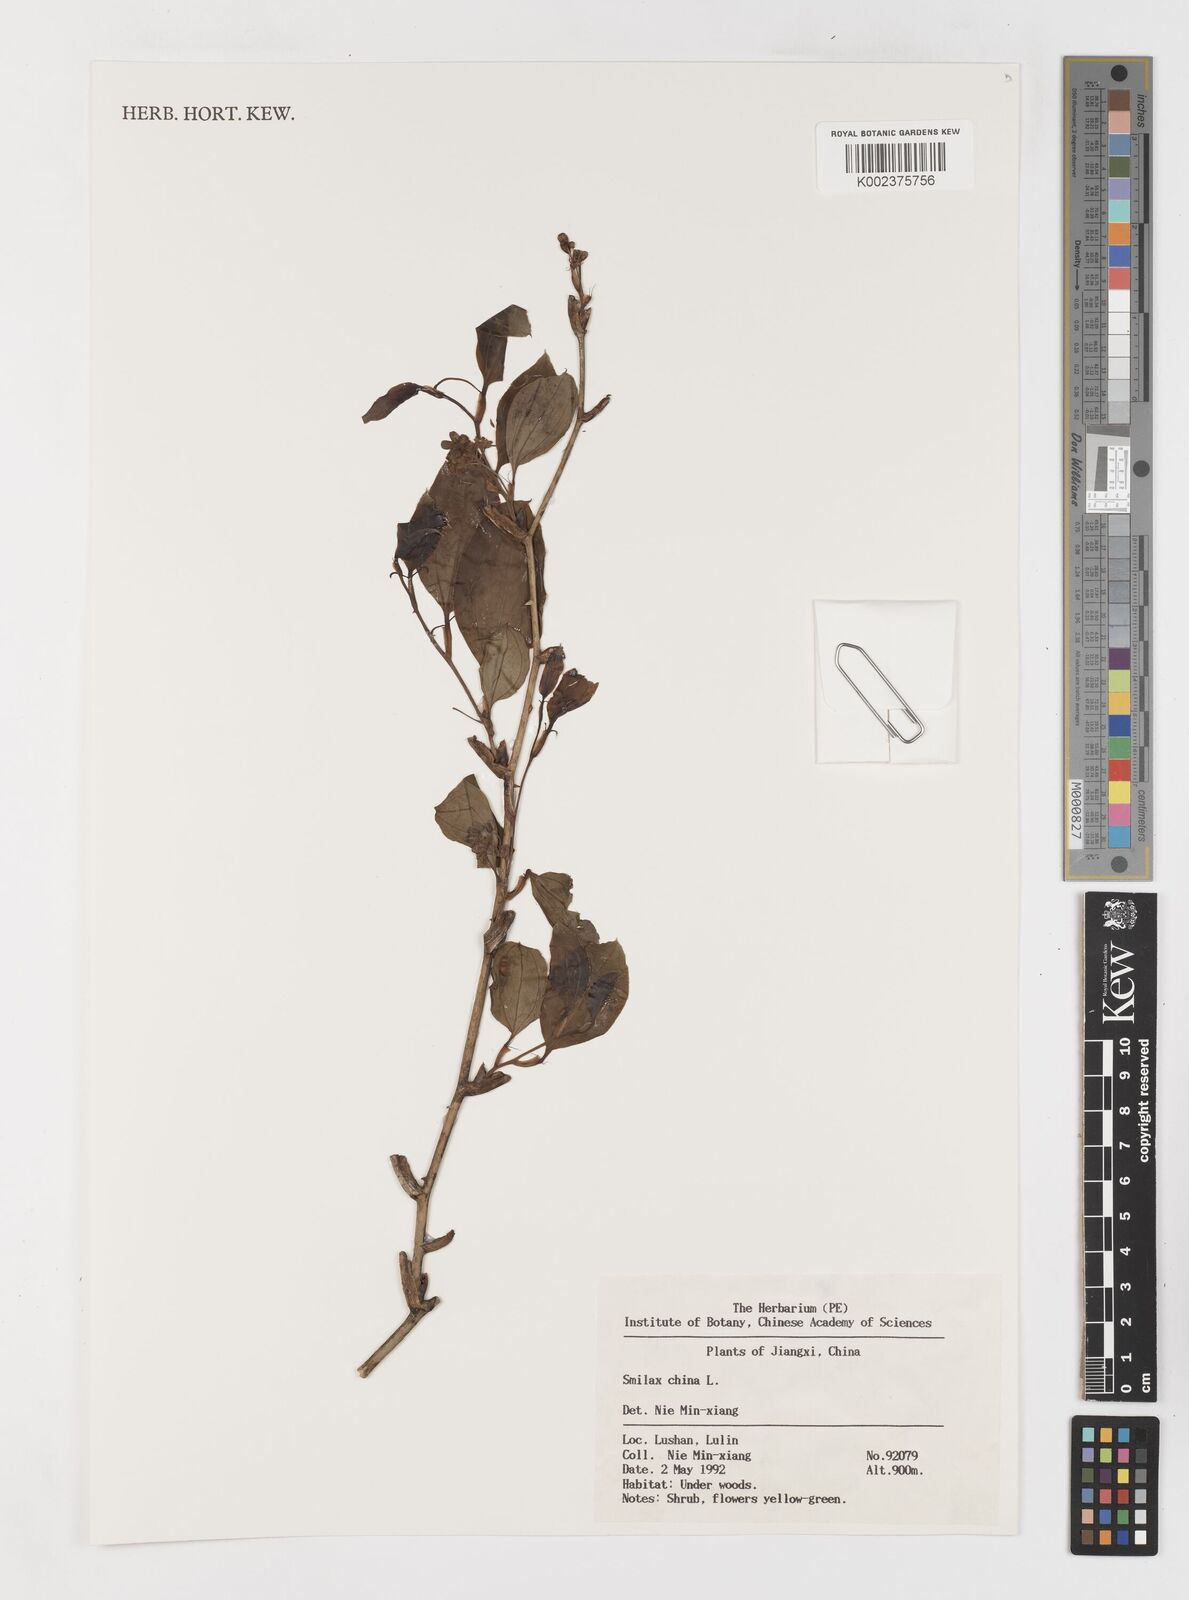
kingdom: Plantae
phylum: Tracheophyta
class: Liliopsida
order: Liliales
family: Smilacaceae
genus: Smilax
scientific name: Smilax china
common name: Chinaroot
